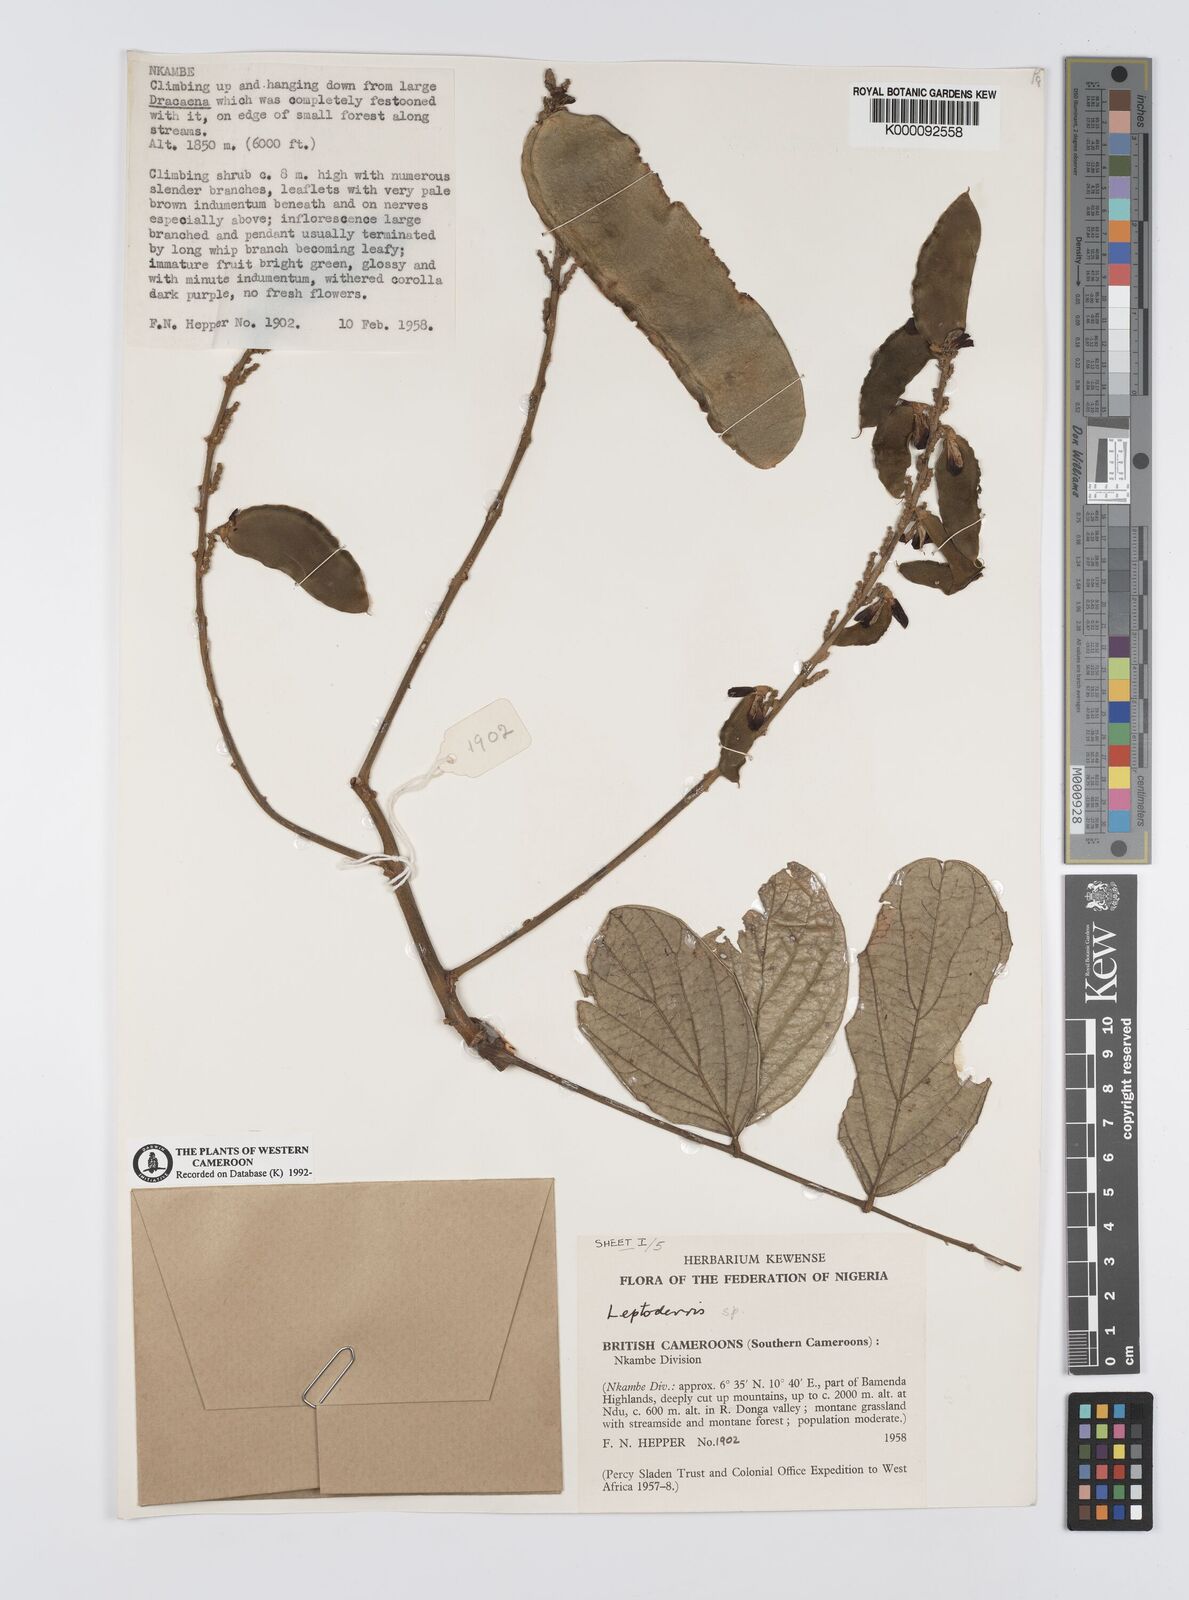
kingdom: Plantae
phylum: Tracheophyta
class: Magnoliopsida
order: Fabales
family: Fabaceae
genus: Leptoderris
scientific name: Leptoderris
